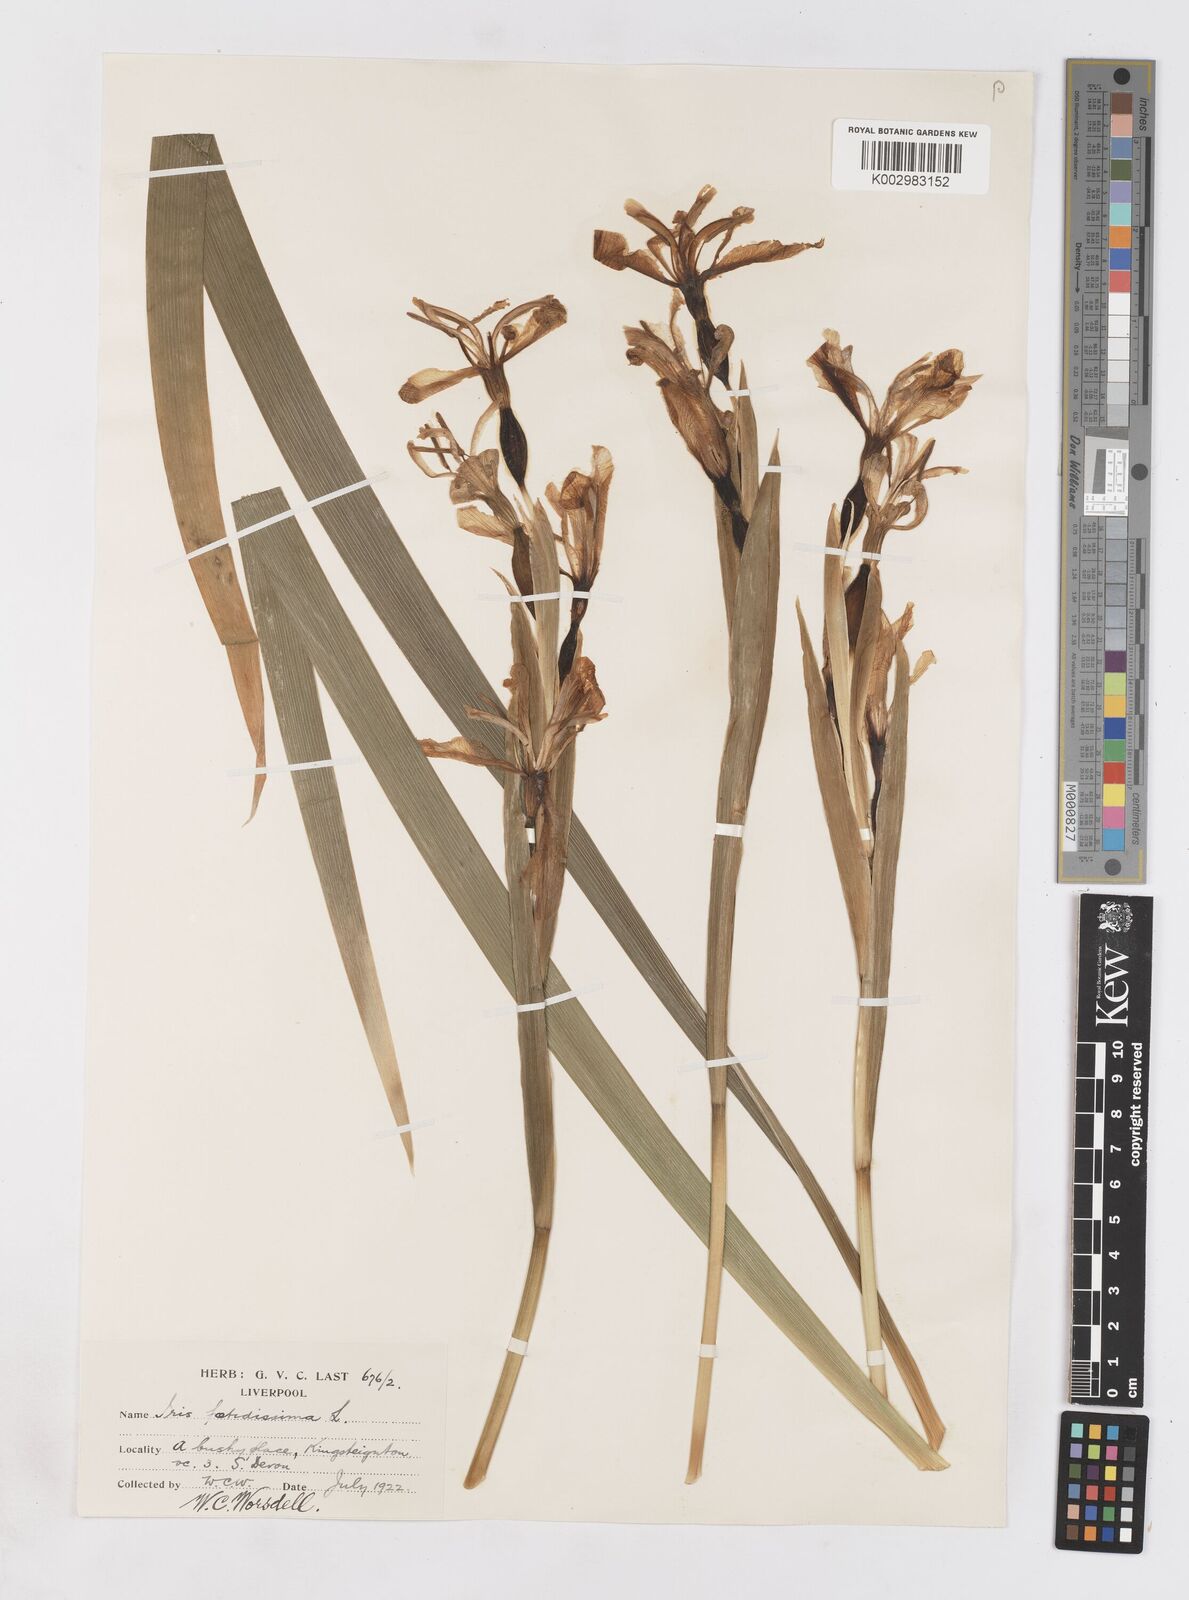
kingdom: Plantae
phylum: Tracheophyta
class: Liliopsida
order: Asparagales
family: Iridaceae
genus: Iris
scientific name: Iris foetidissima
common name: Stinking iris
